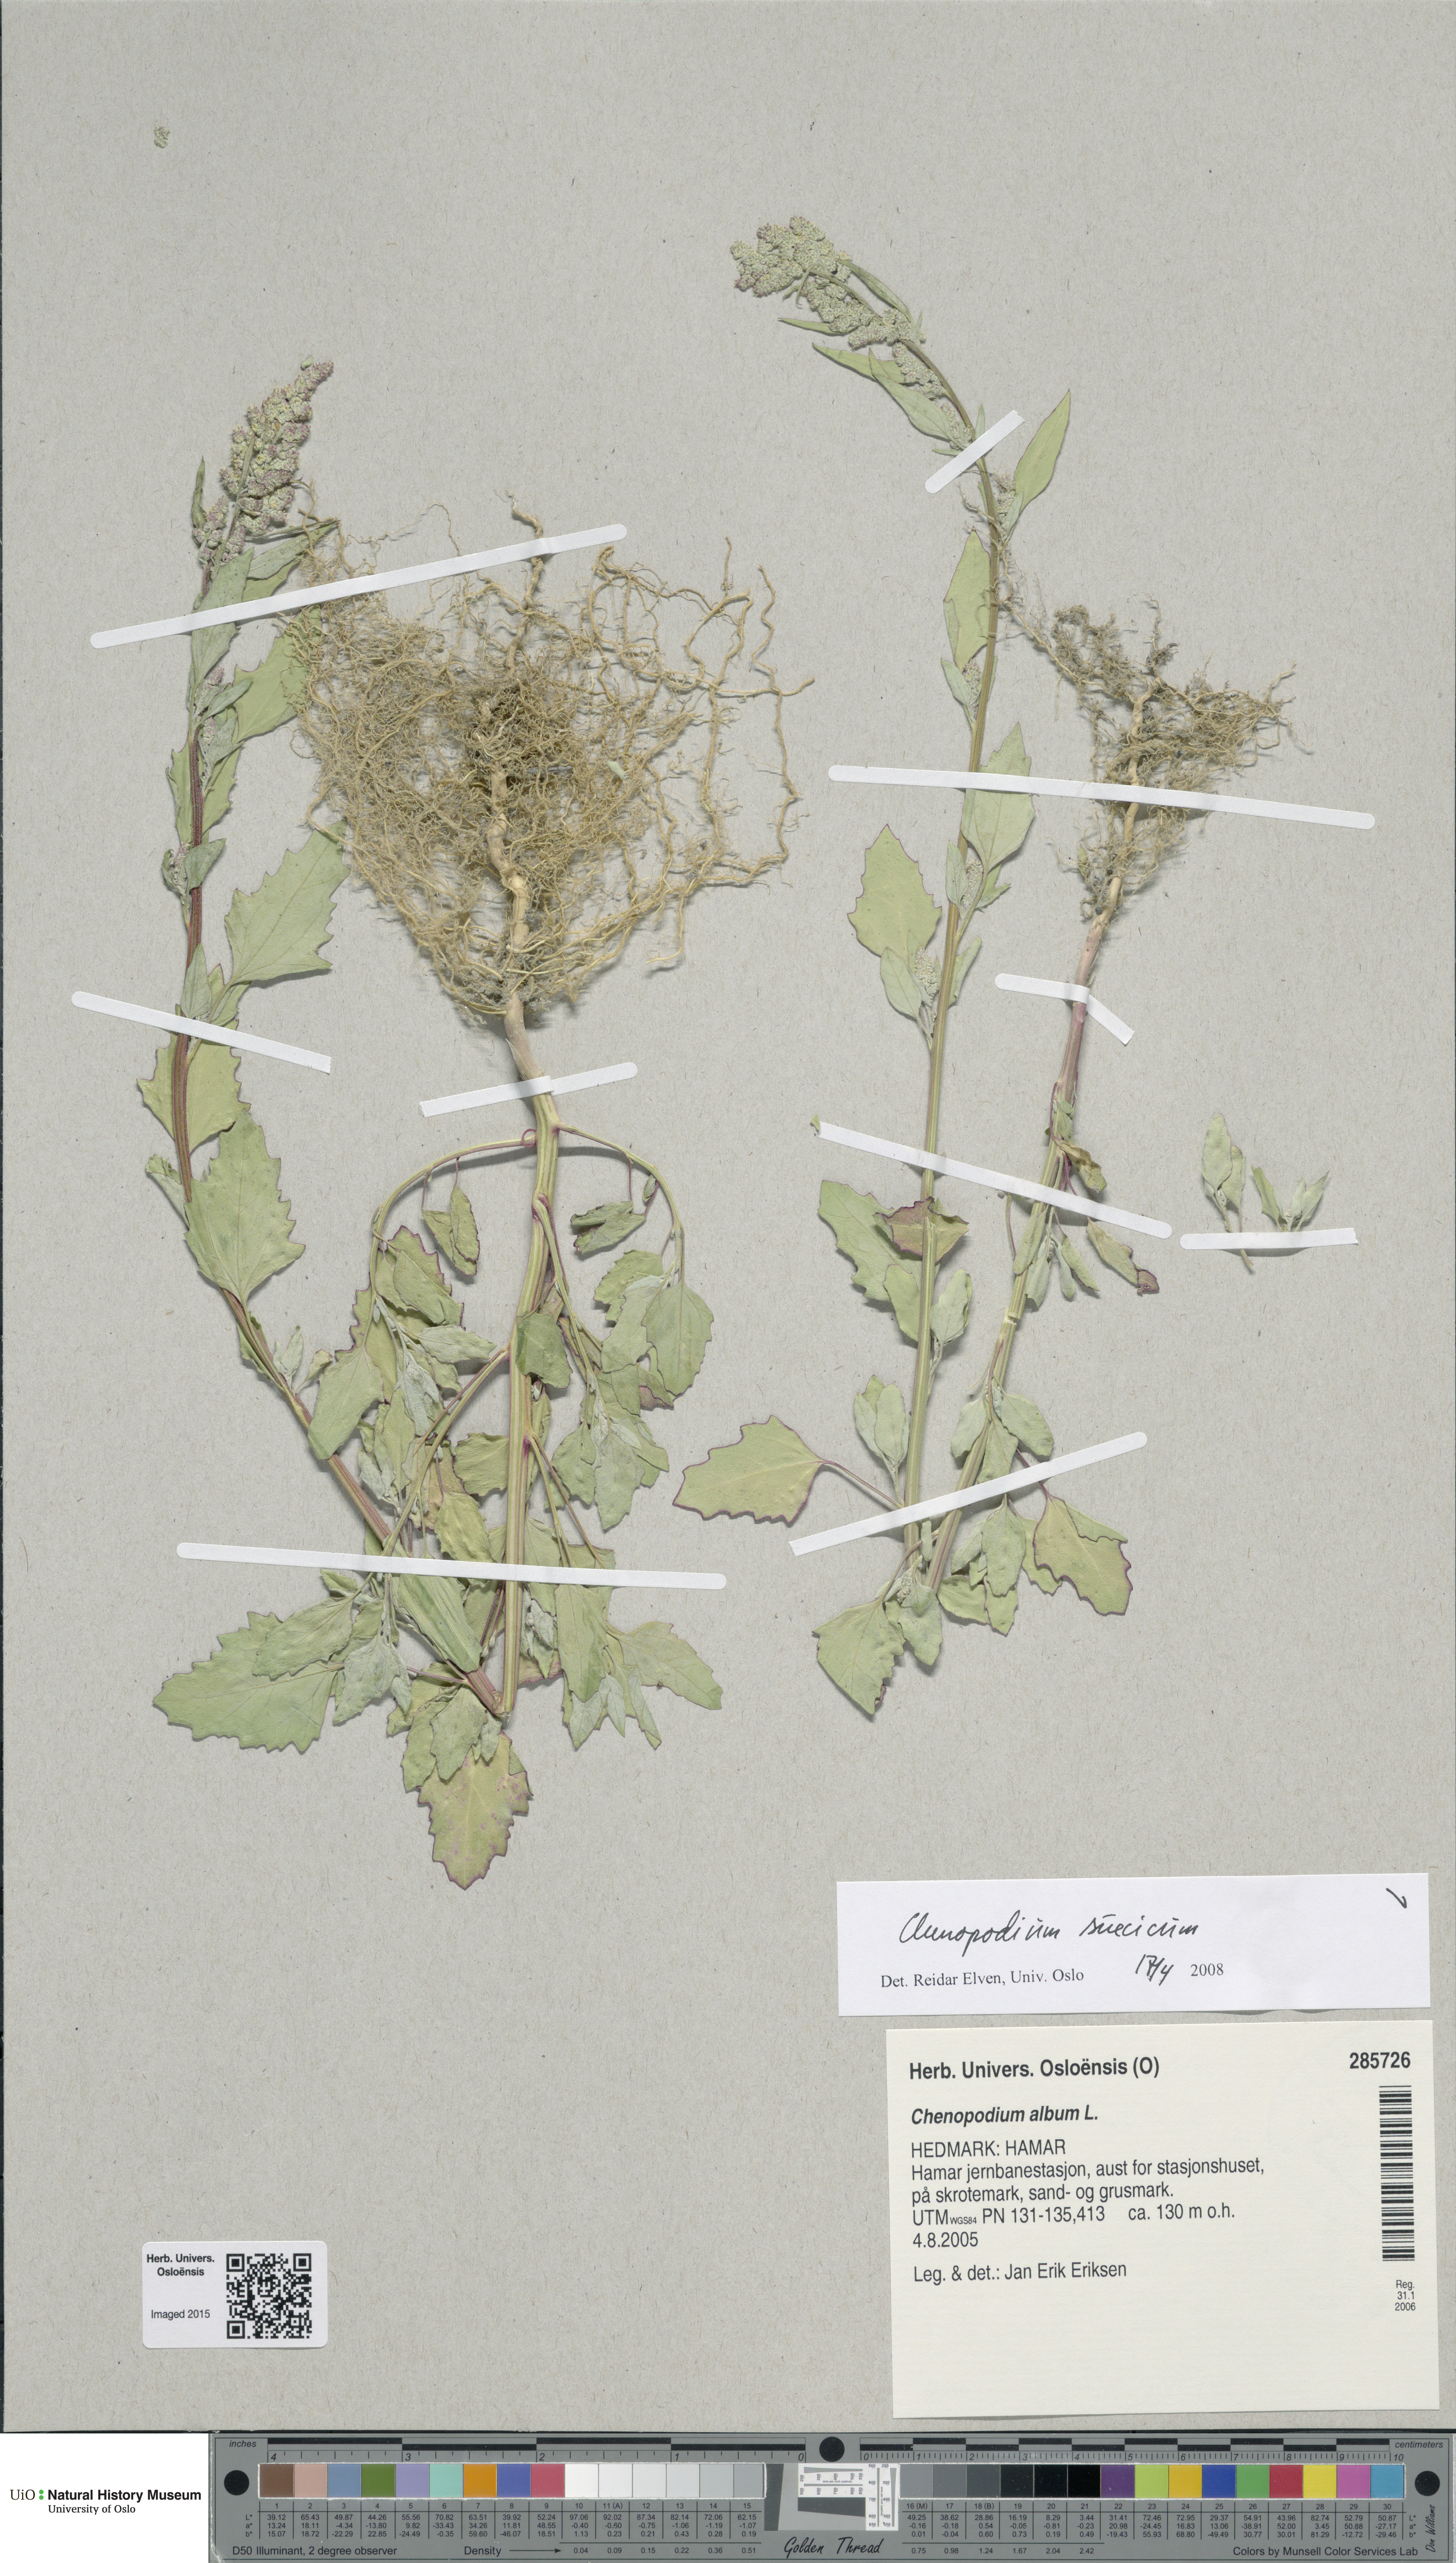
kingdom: Plantae
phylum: Tracheophyta
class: Magnoliopsida
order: Caryophyllales
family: Amaranthaceae
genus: Chenopodium
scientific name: Chenopodium suecicum
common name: Swedish goosefoot
